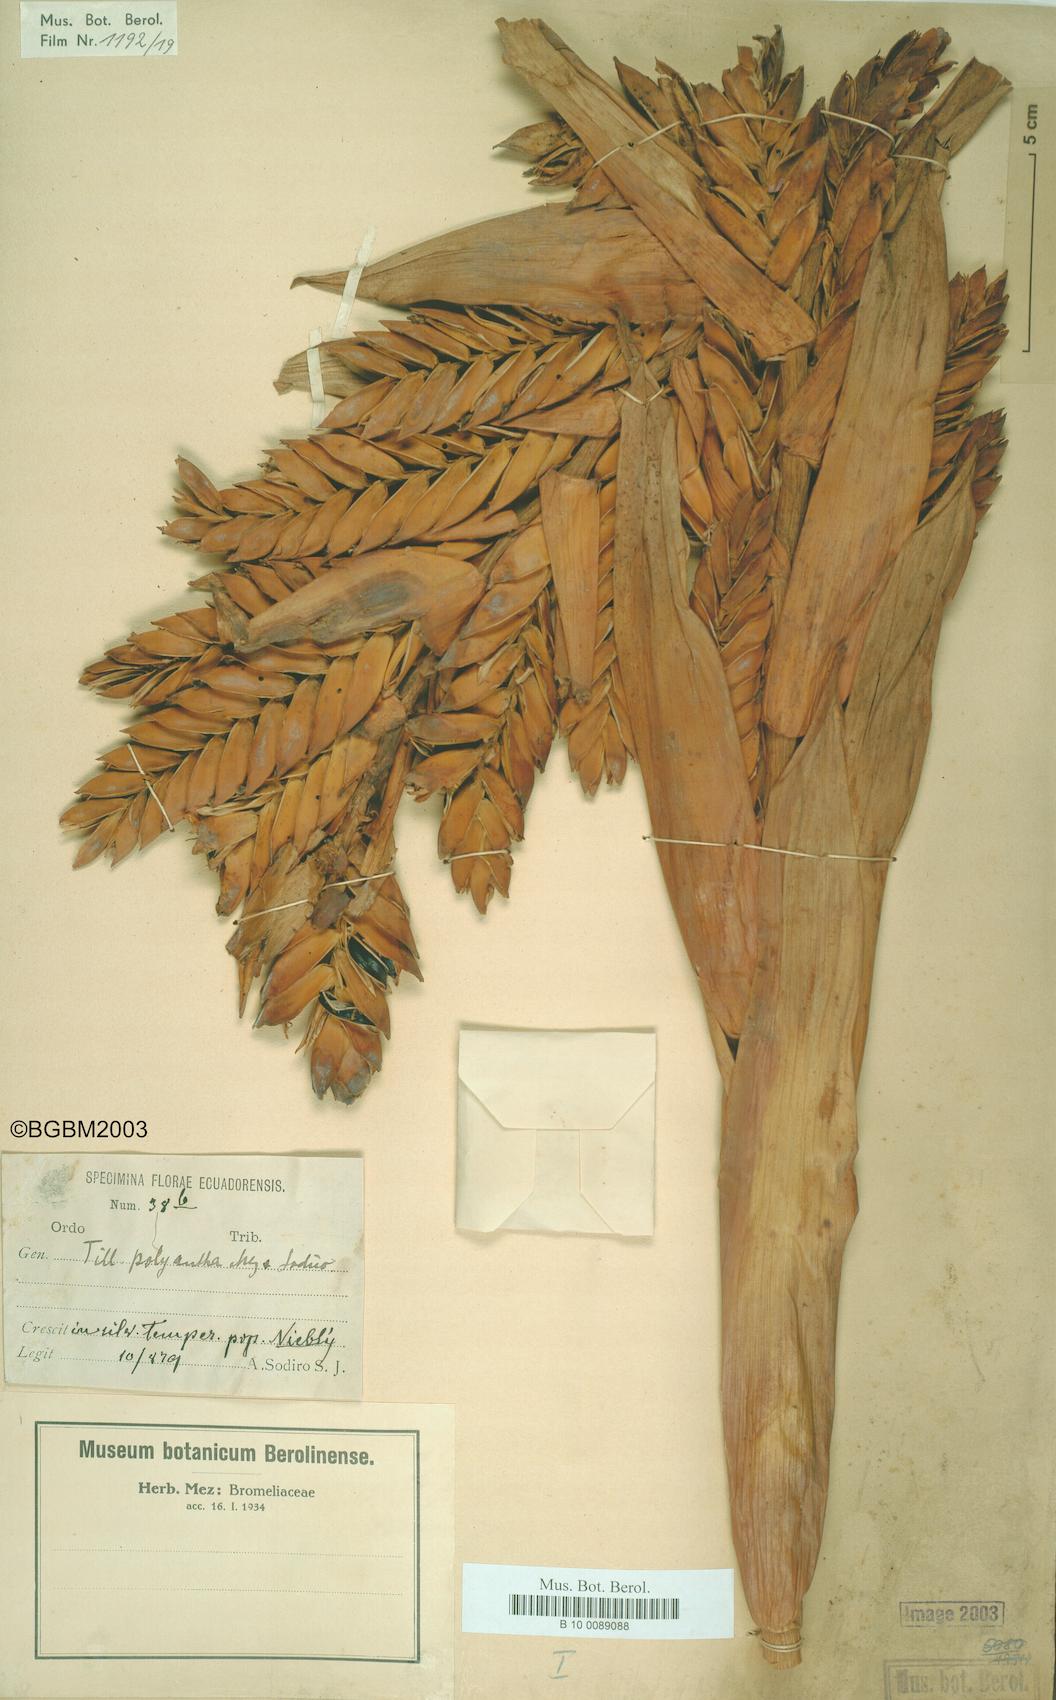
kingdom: Plantae
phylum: Tracheophyta
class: Liliopsida
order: Poales
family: Bromeliaceae
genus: Tillandsia
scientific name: Tillandsia polyantha
